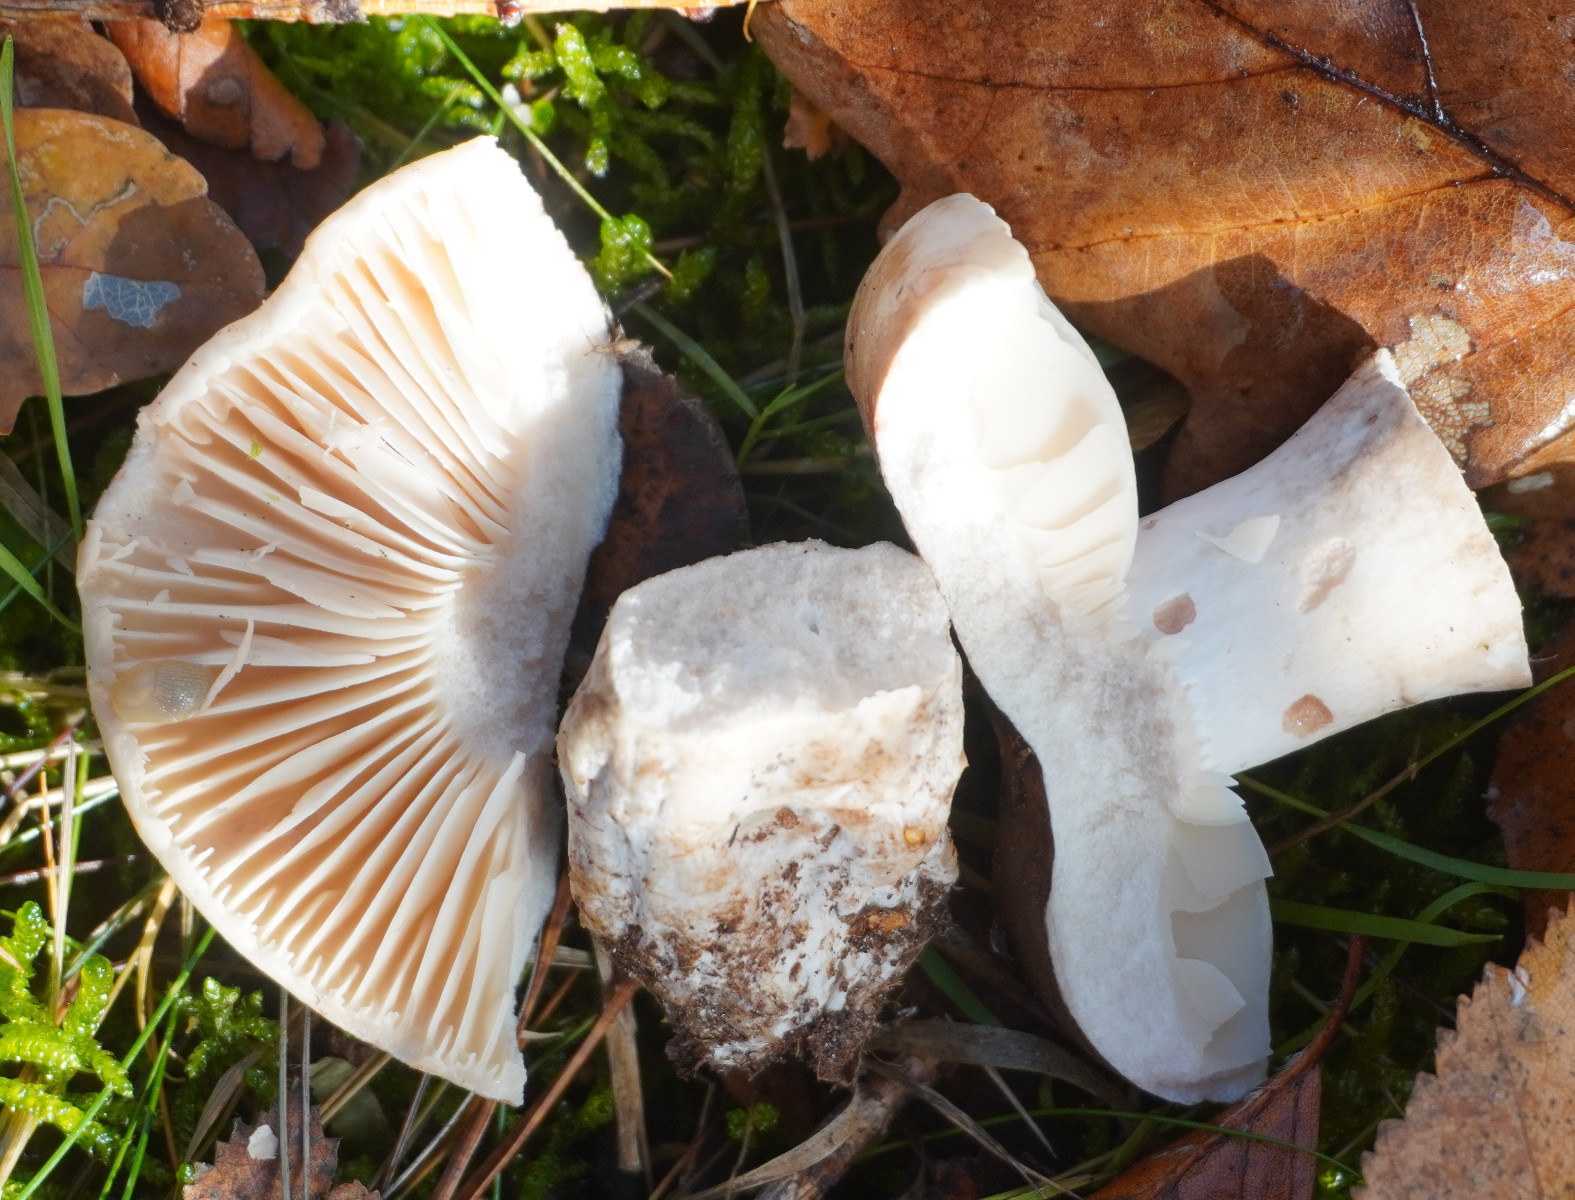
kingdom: Fungi
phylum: Basidiomycota
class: Agaricomycetes
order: Russulales
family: Russulaceae
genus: Russula
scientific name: Russula adusta
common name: sværtende skørhat
